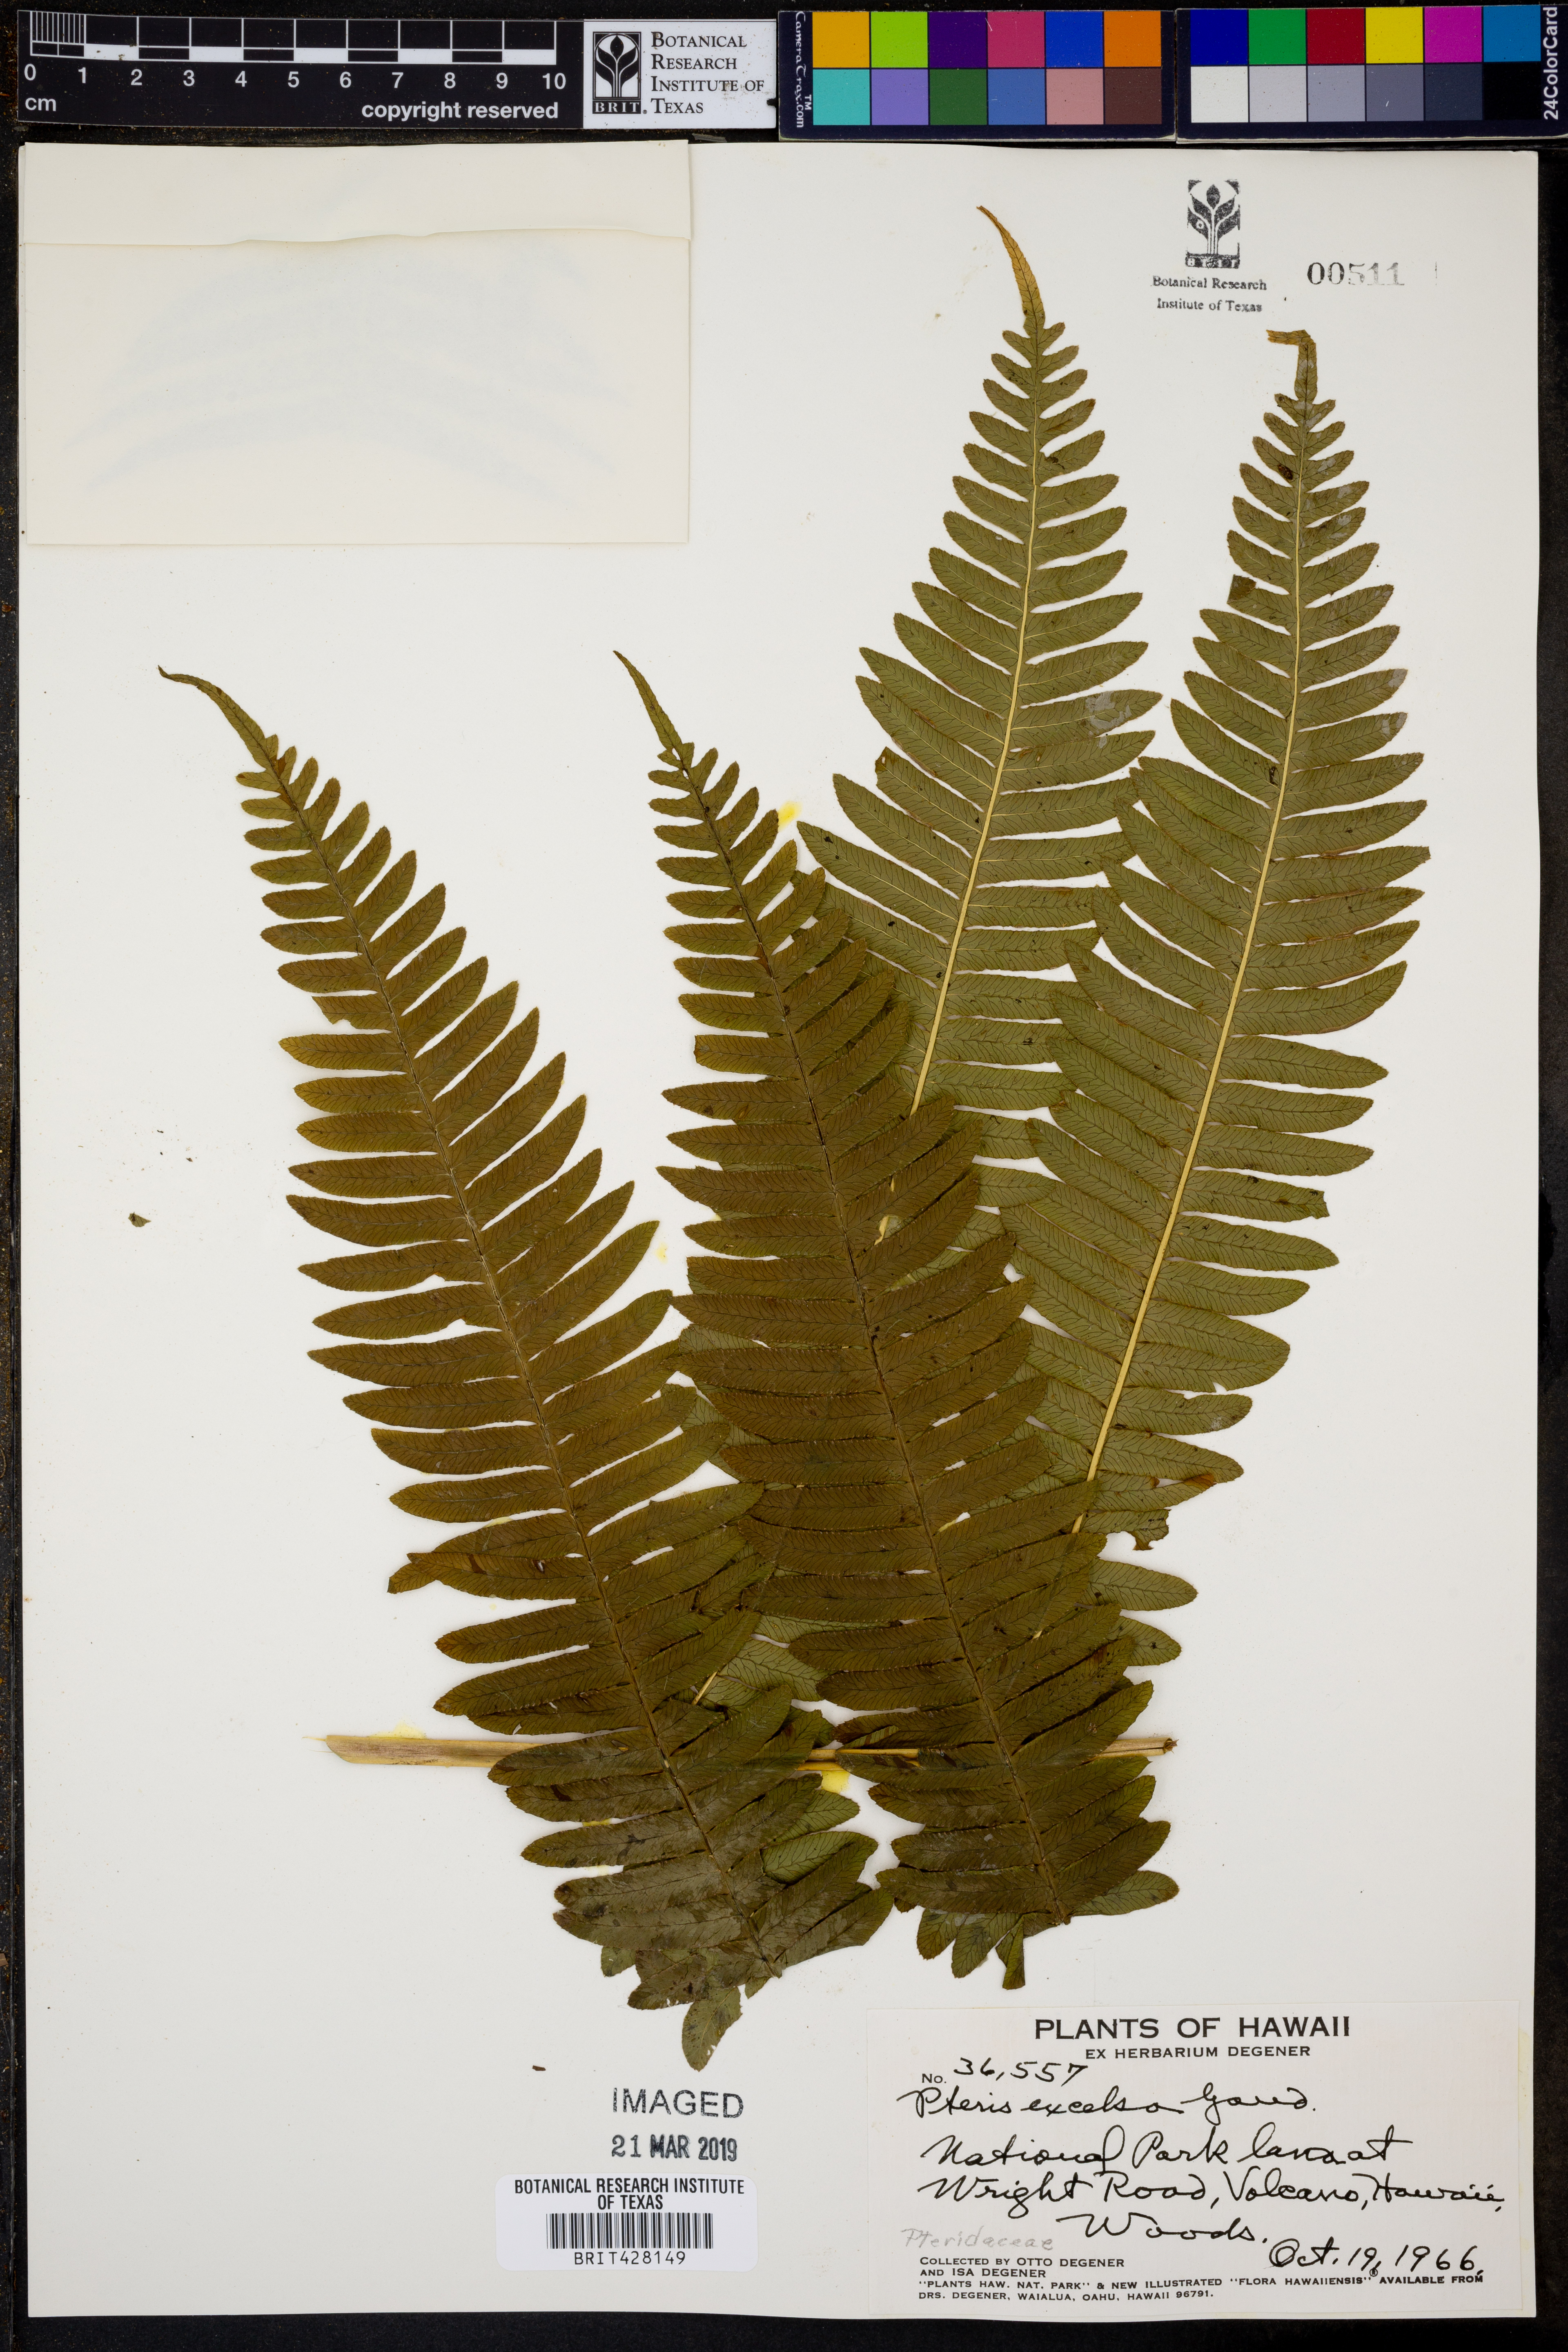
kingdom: Plantae
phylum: Tracheophyta
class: Polypodiopsida
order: Polypodiales
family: Pteridaceae
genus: Pteris
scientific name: Pteris terminalis
